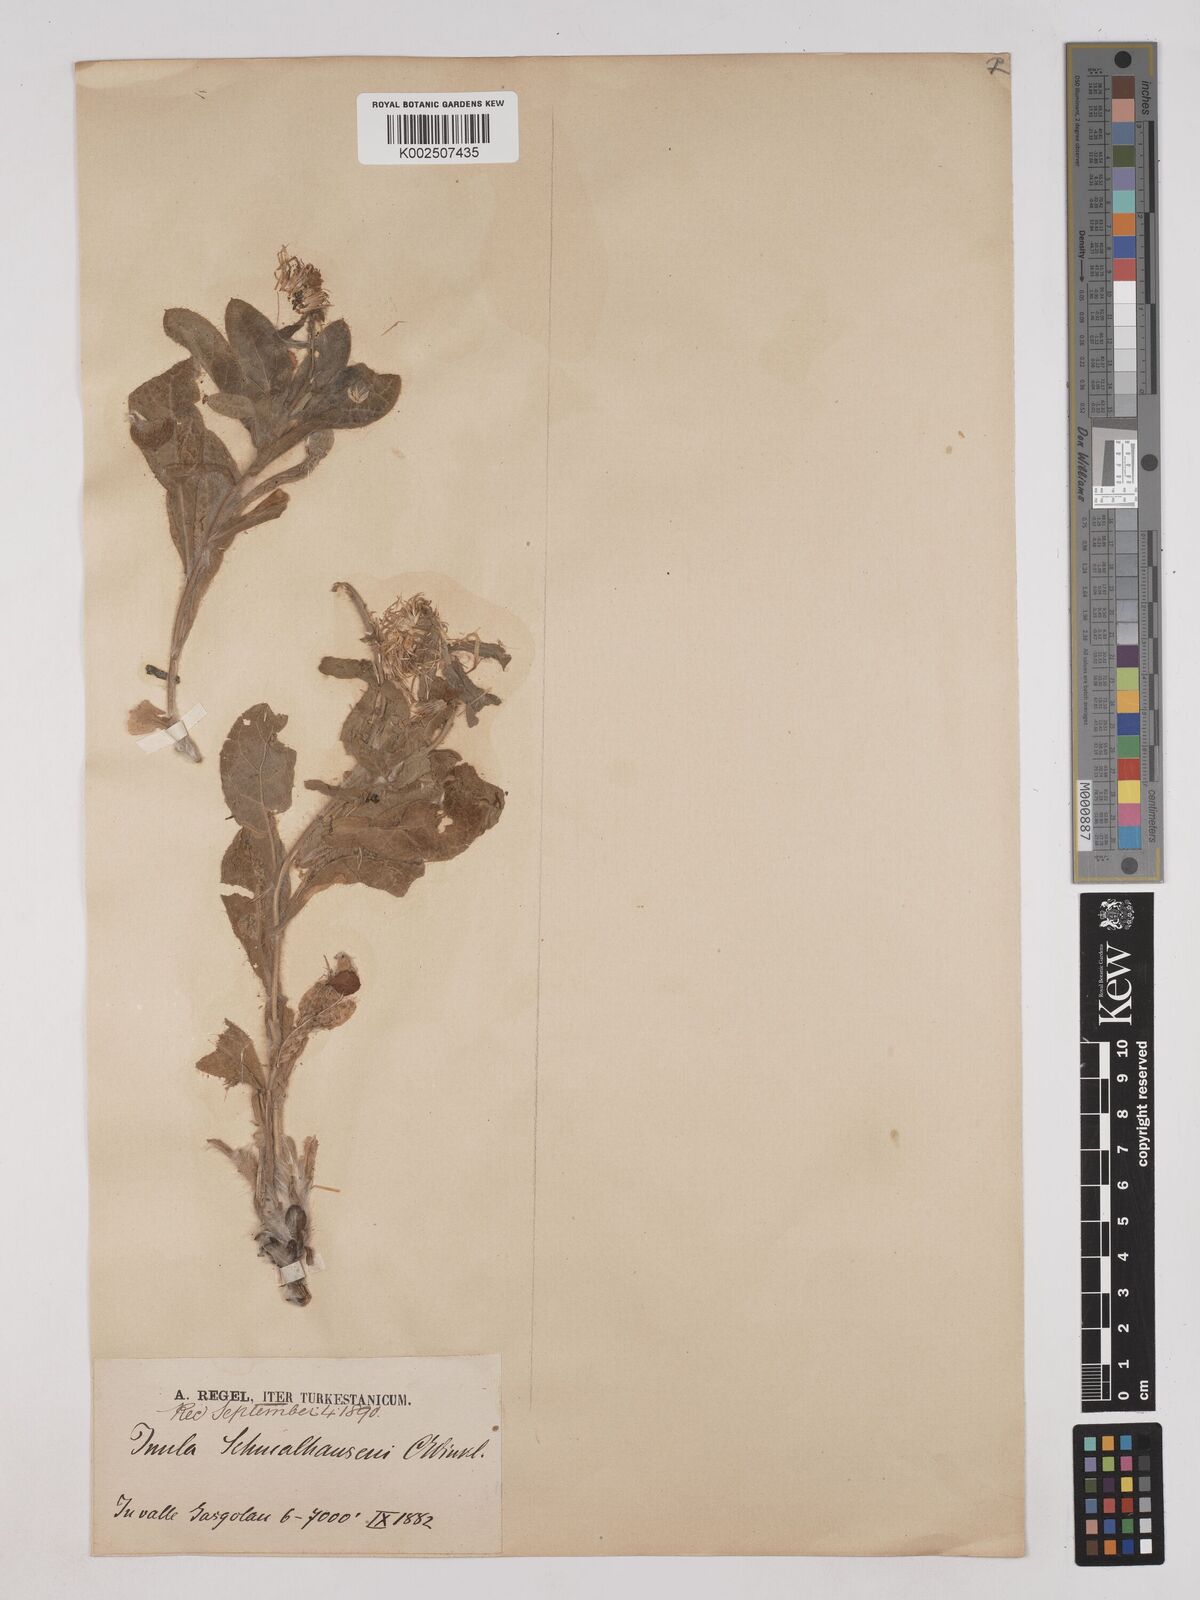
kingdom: Plantae
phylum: Tracheophyta
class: Magnoliopsida
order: Asterales
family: Asteraceae
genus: Inula
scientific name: Inula schmalhausenii
